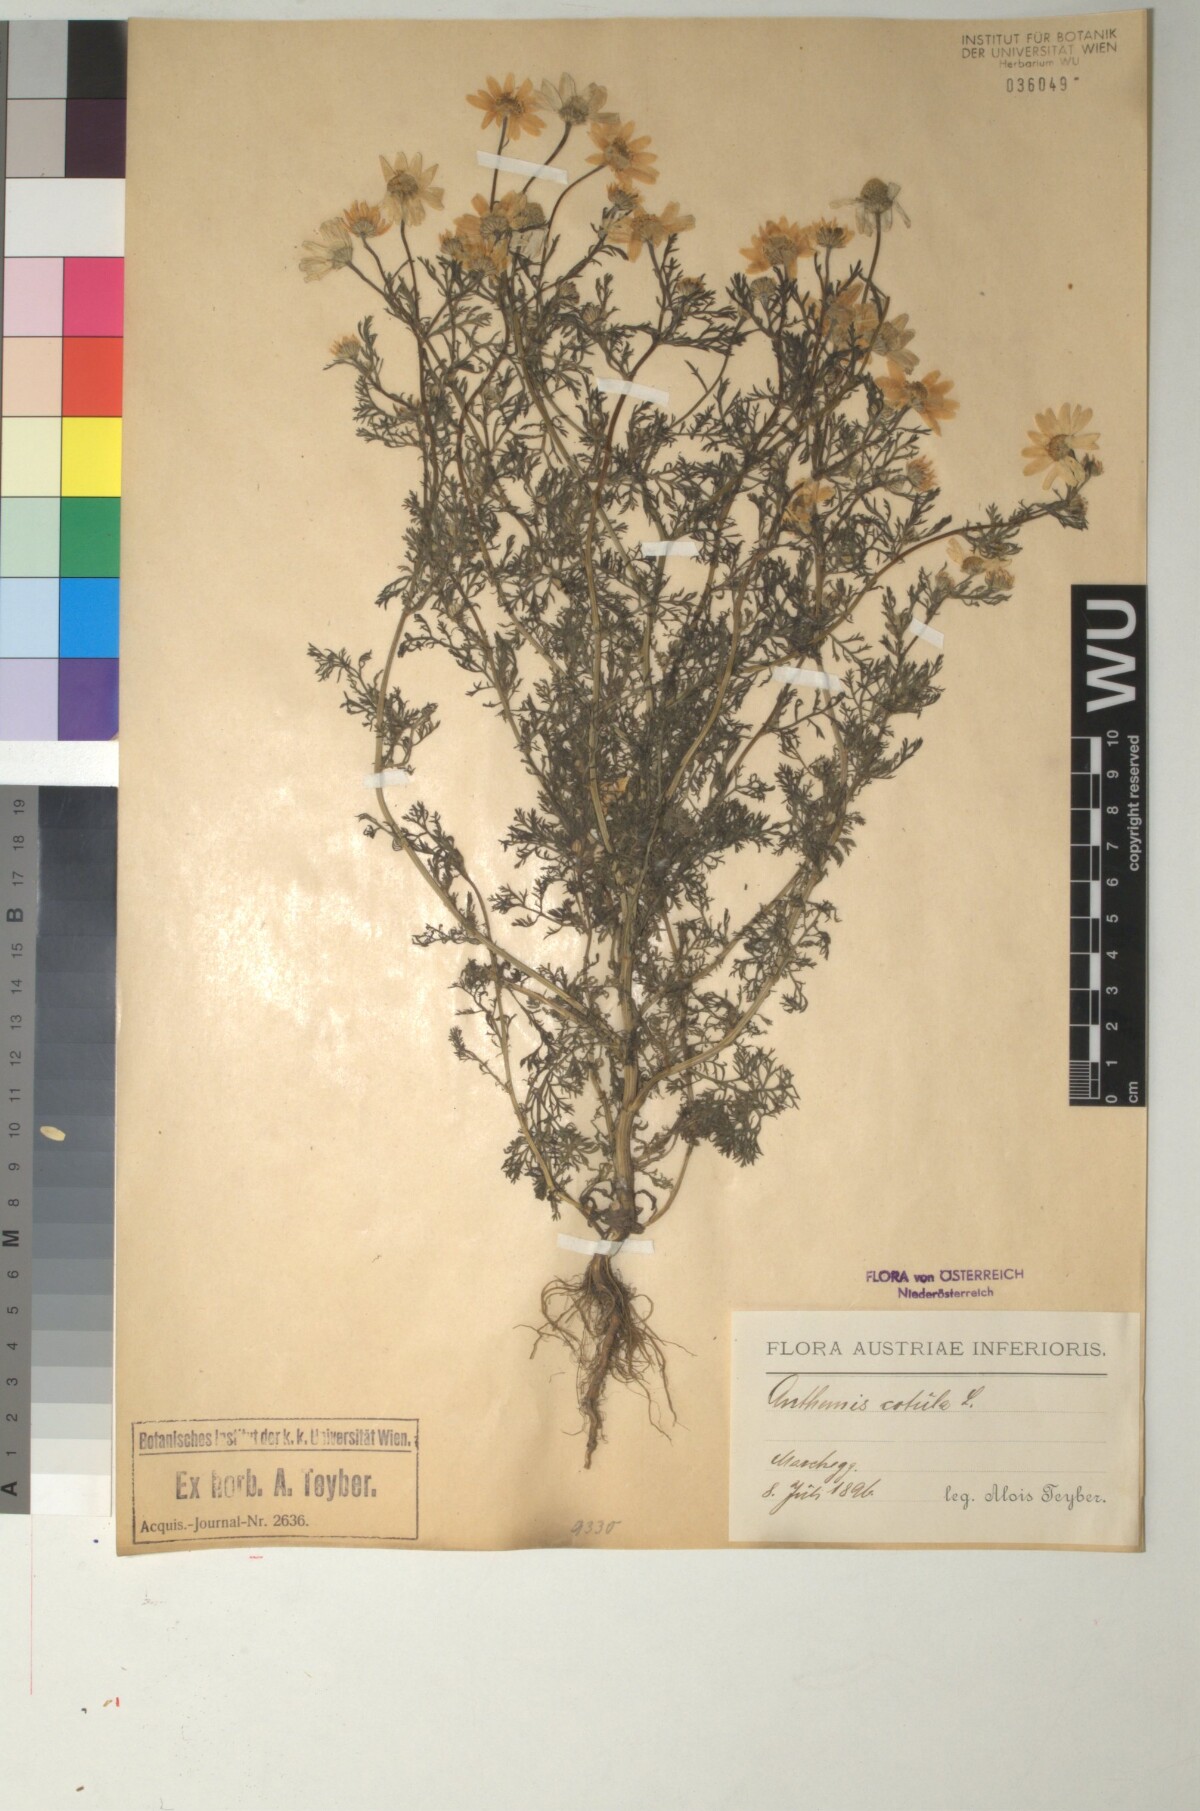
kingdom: Plantae
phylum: Tracheophyta
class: Magnoliopsida
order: Asterales
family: Asteraceae
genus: Anthemis
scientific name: Anthemis cotula
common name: Stinking chamomile
